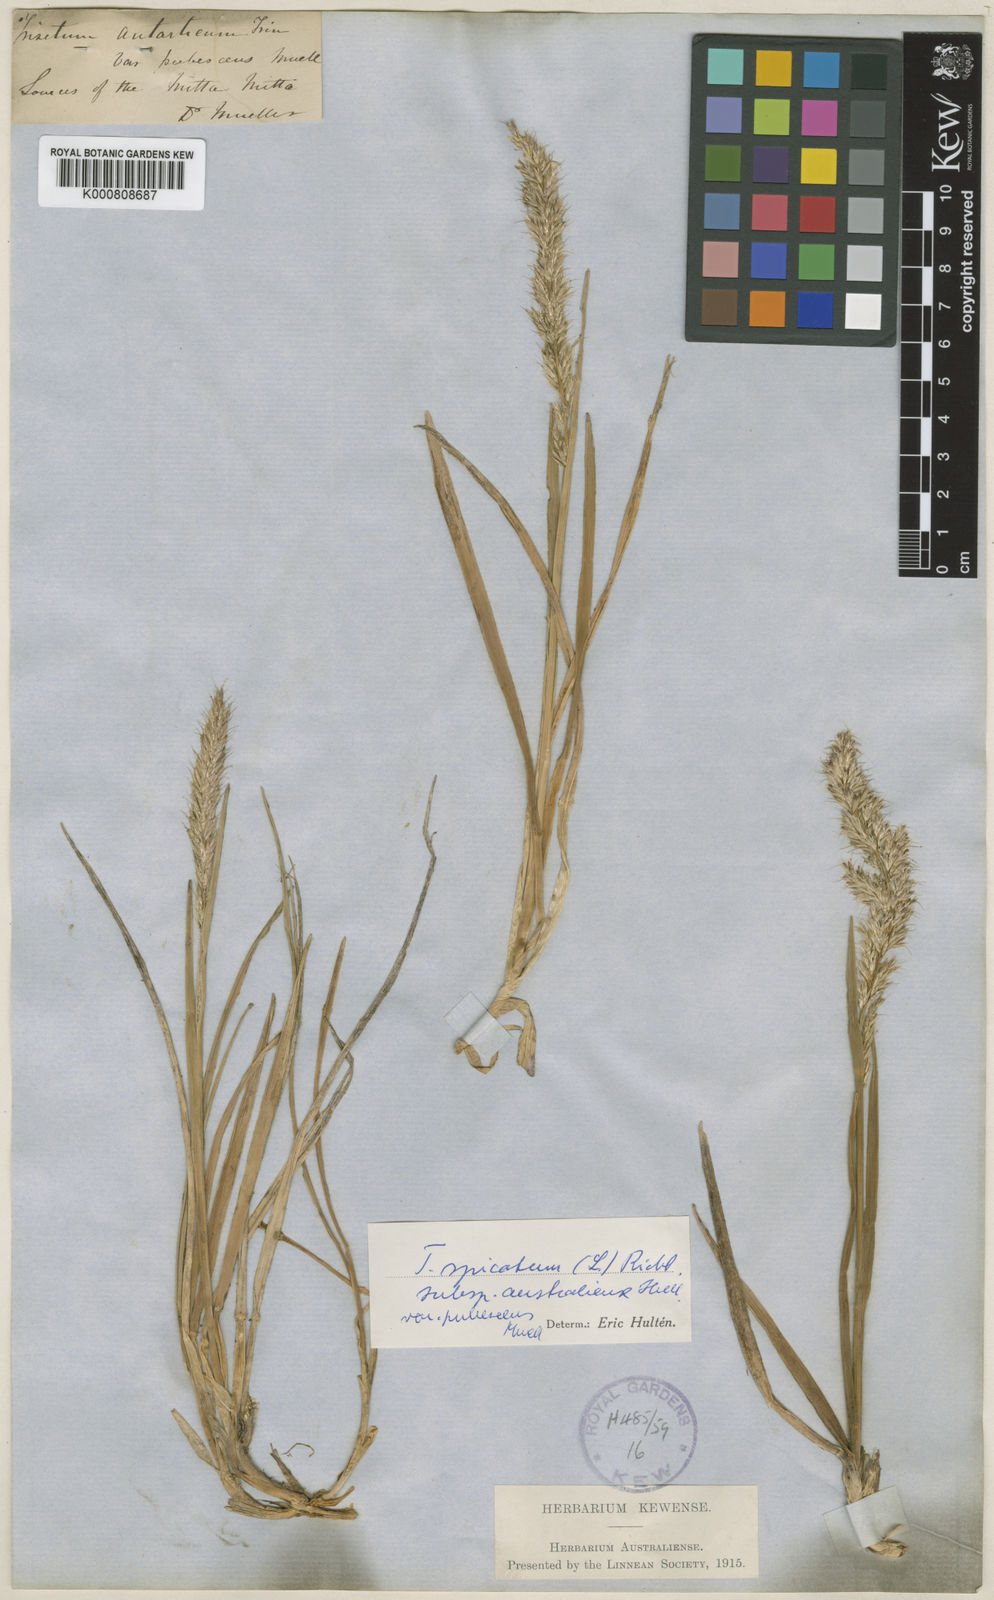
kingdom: Plantae
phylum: Tracheophyta
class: Liliopsida
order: Poales
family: Poaceae
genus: Koeleria
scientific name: Koeleria spicata
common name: Mountain trisetum
